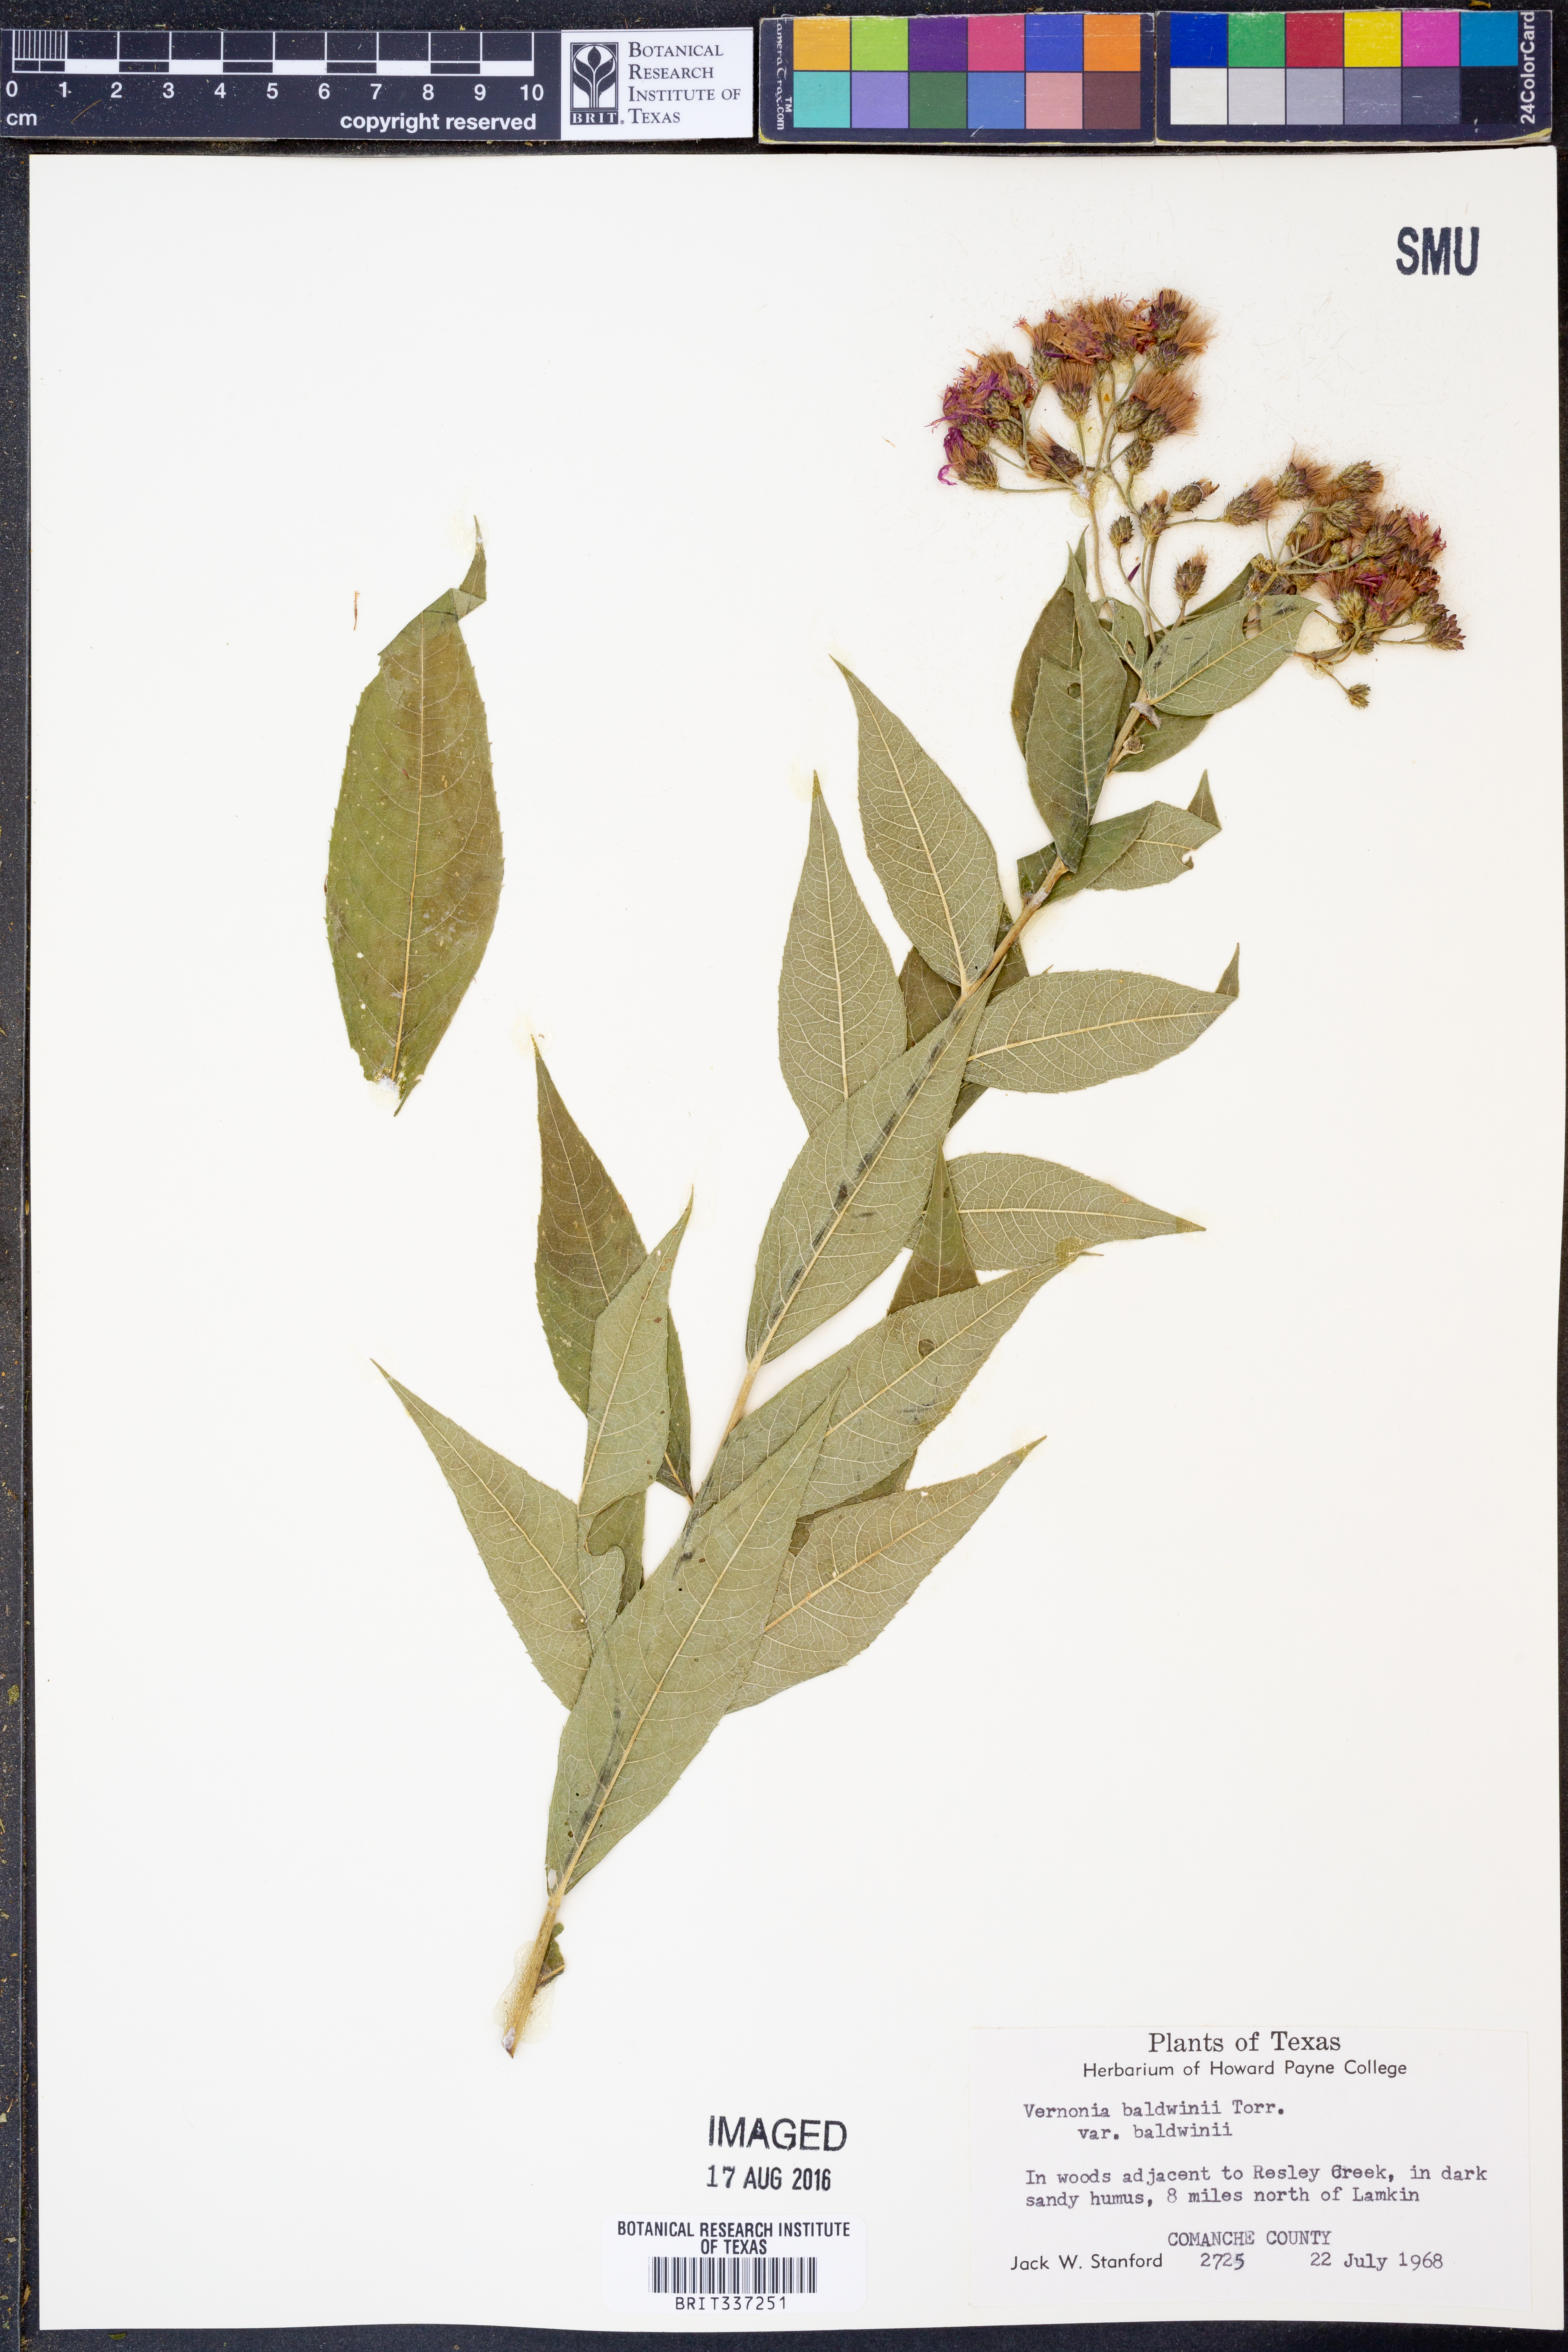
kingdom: Plantae
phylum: Tracheophyta
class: Magnoliopsida
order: Asterales
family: Asteraceae
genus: Vernonia
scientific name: Vernonia baldwinii
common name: Western ironweed
